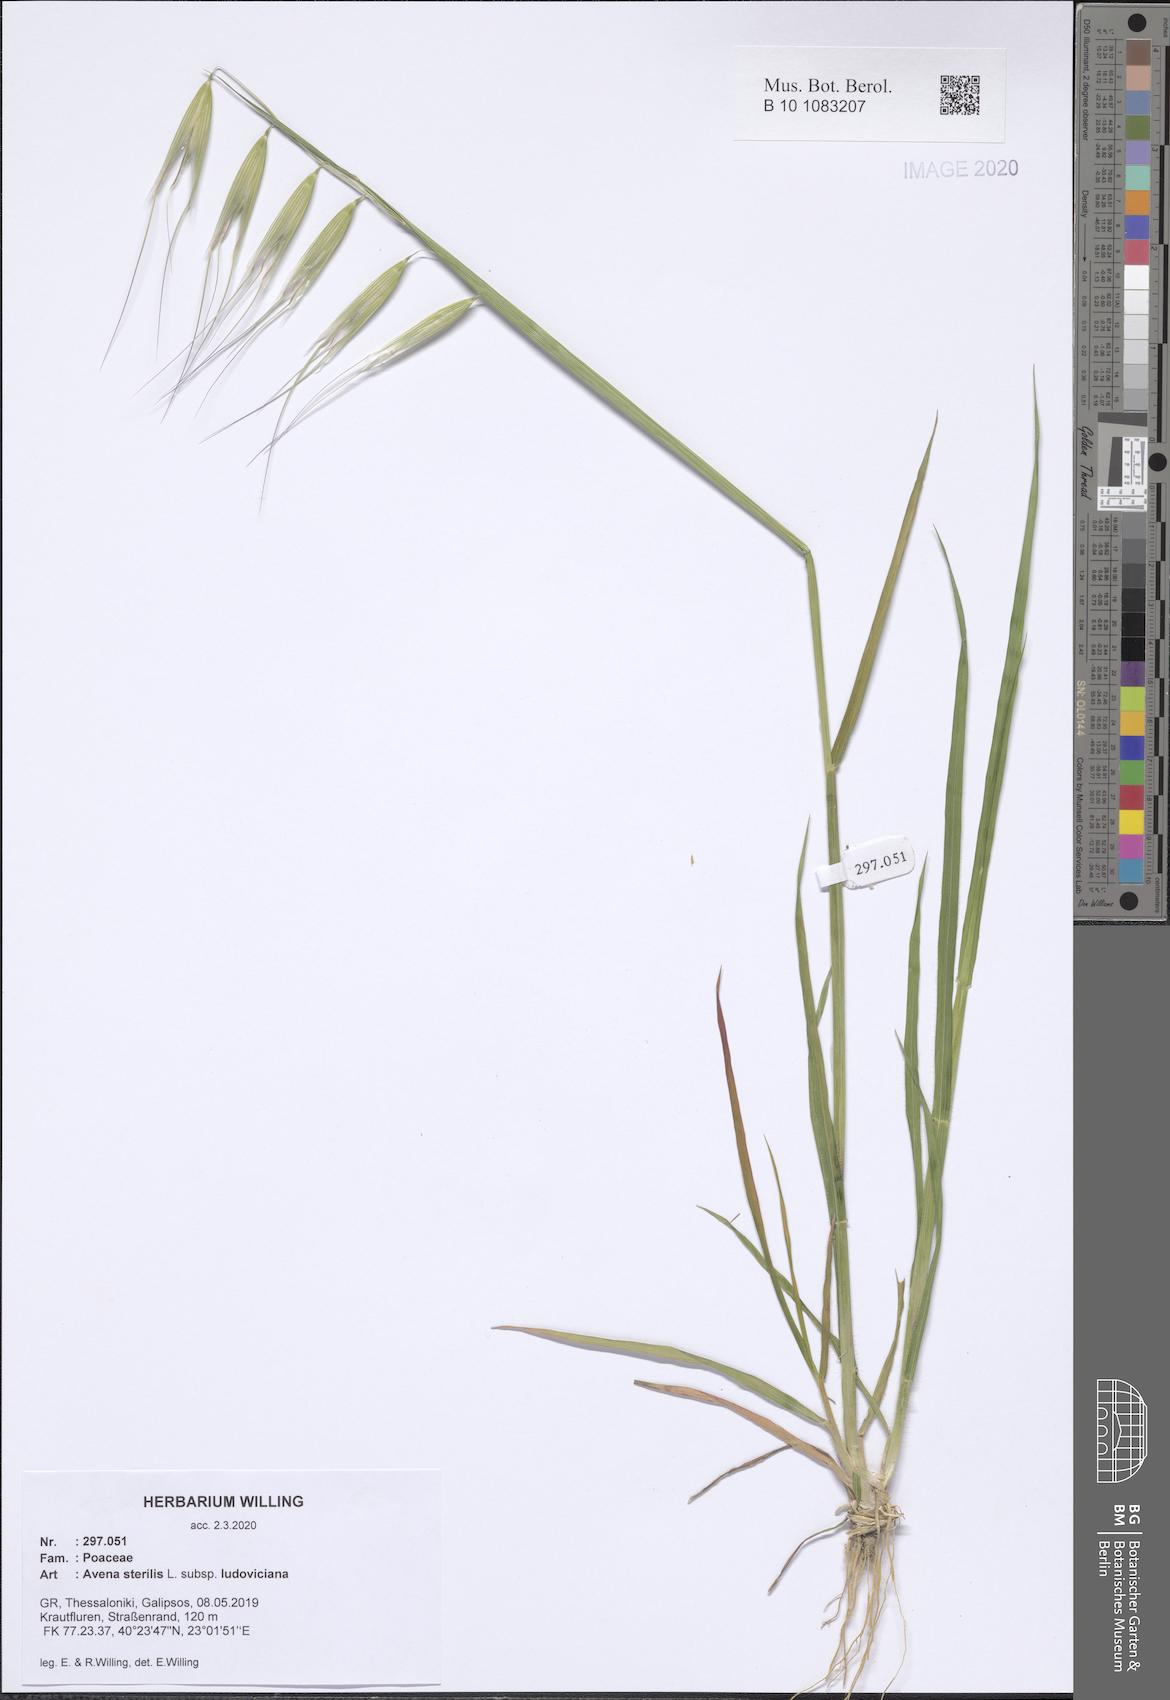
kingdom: Plantae
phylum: Tracheophyta
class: Liliopsida
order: Poales
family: Poaceae
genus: Avena
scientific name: Avena sterilis
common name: Animated oat
